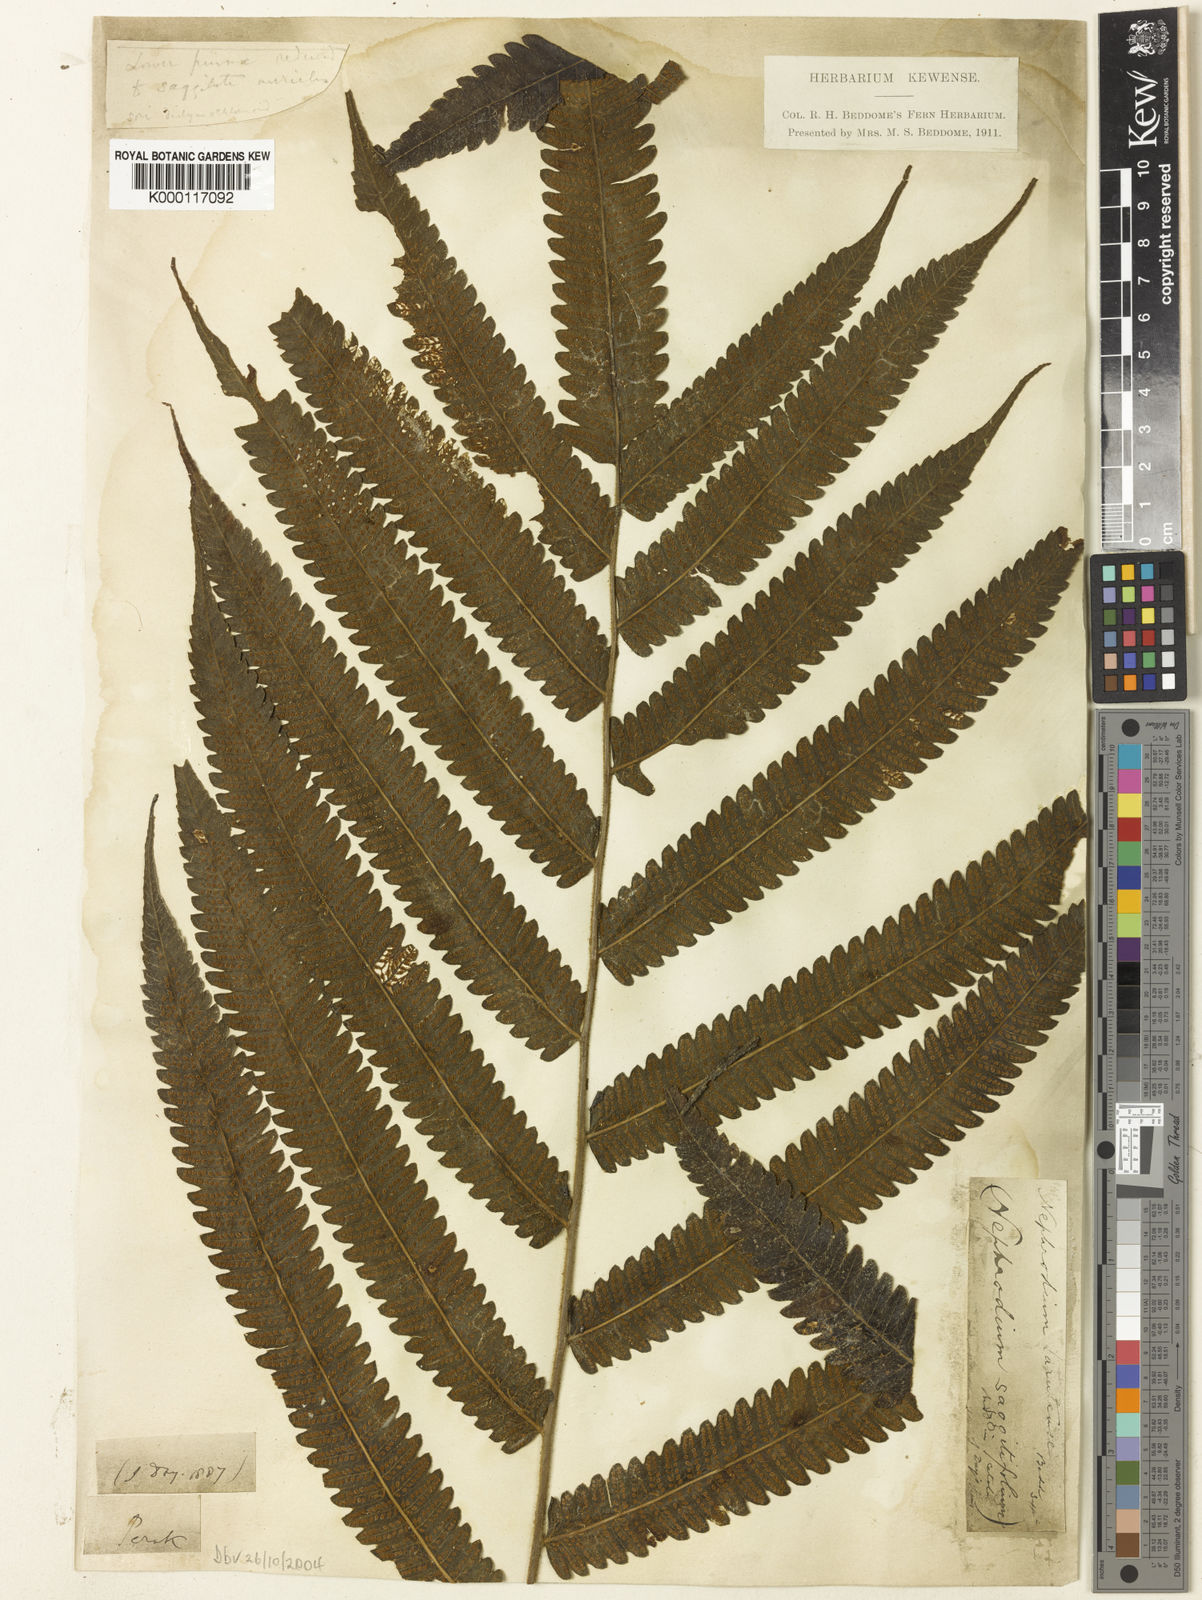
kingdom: Plantae
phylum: Tracheophyta
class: Polypodiopsida
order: Polypodiales
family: Thelypteridaceae
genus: Sphaerostephanos
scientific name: Sphaerostephanos larutensis
